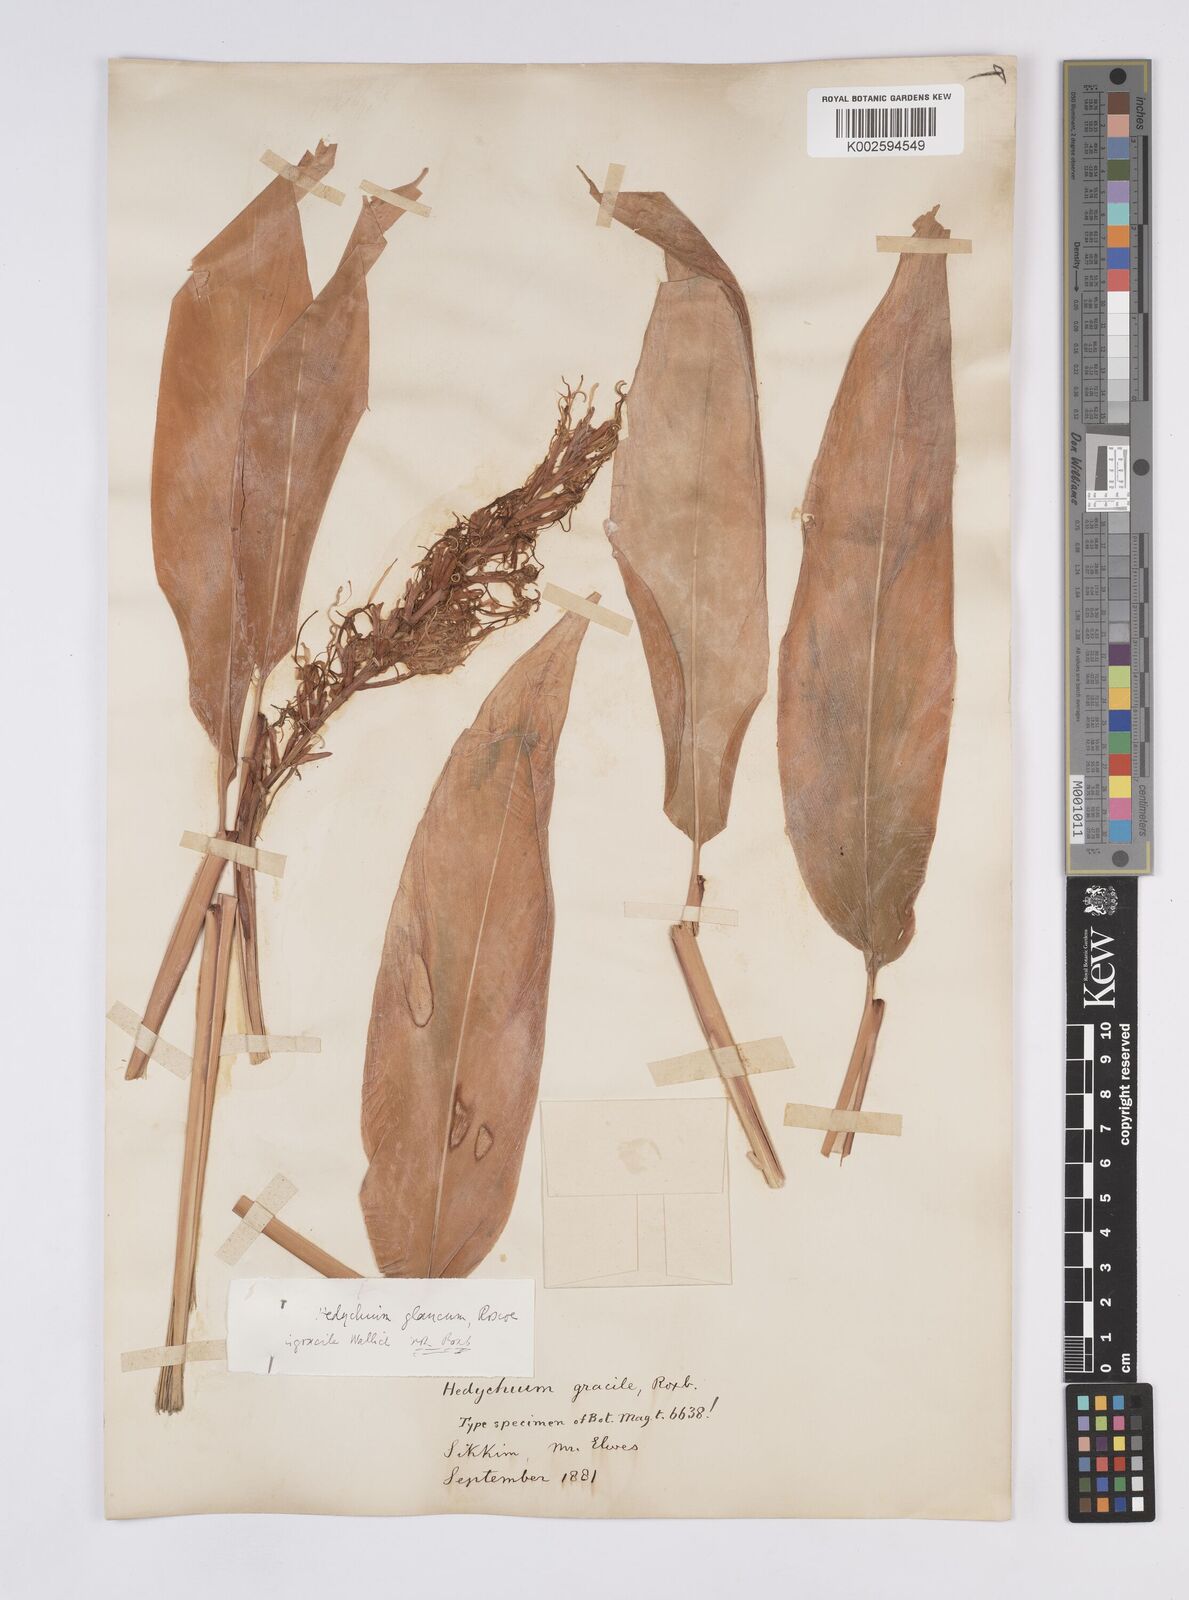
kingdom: Plantae
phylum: Tracheophyta
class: Liliopsida
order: Zingiberales
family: Zingiberaceae
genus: Hedychium
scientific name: Hedychium glaucum
